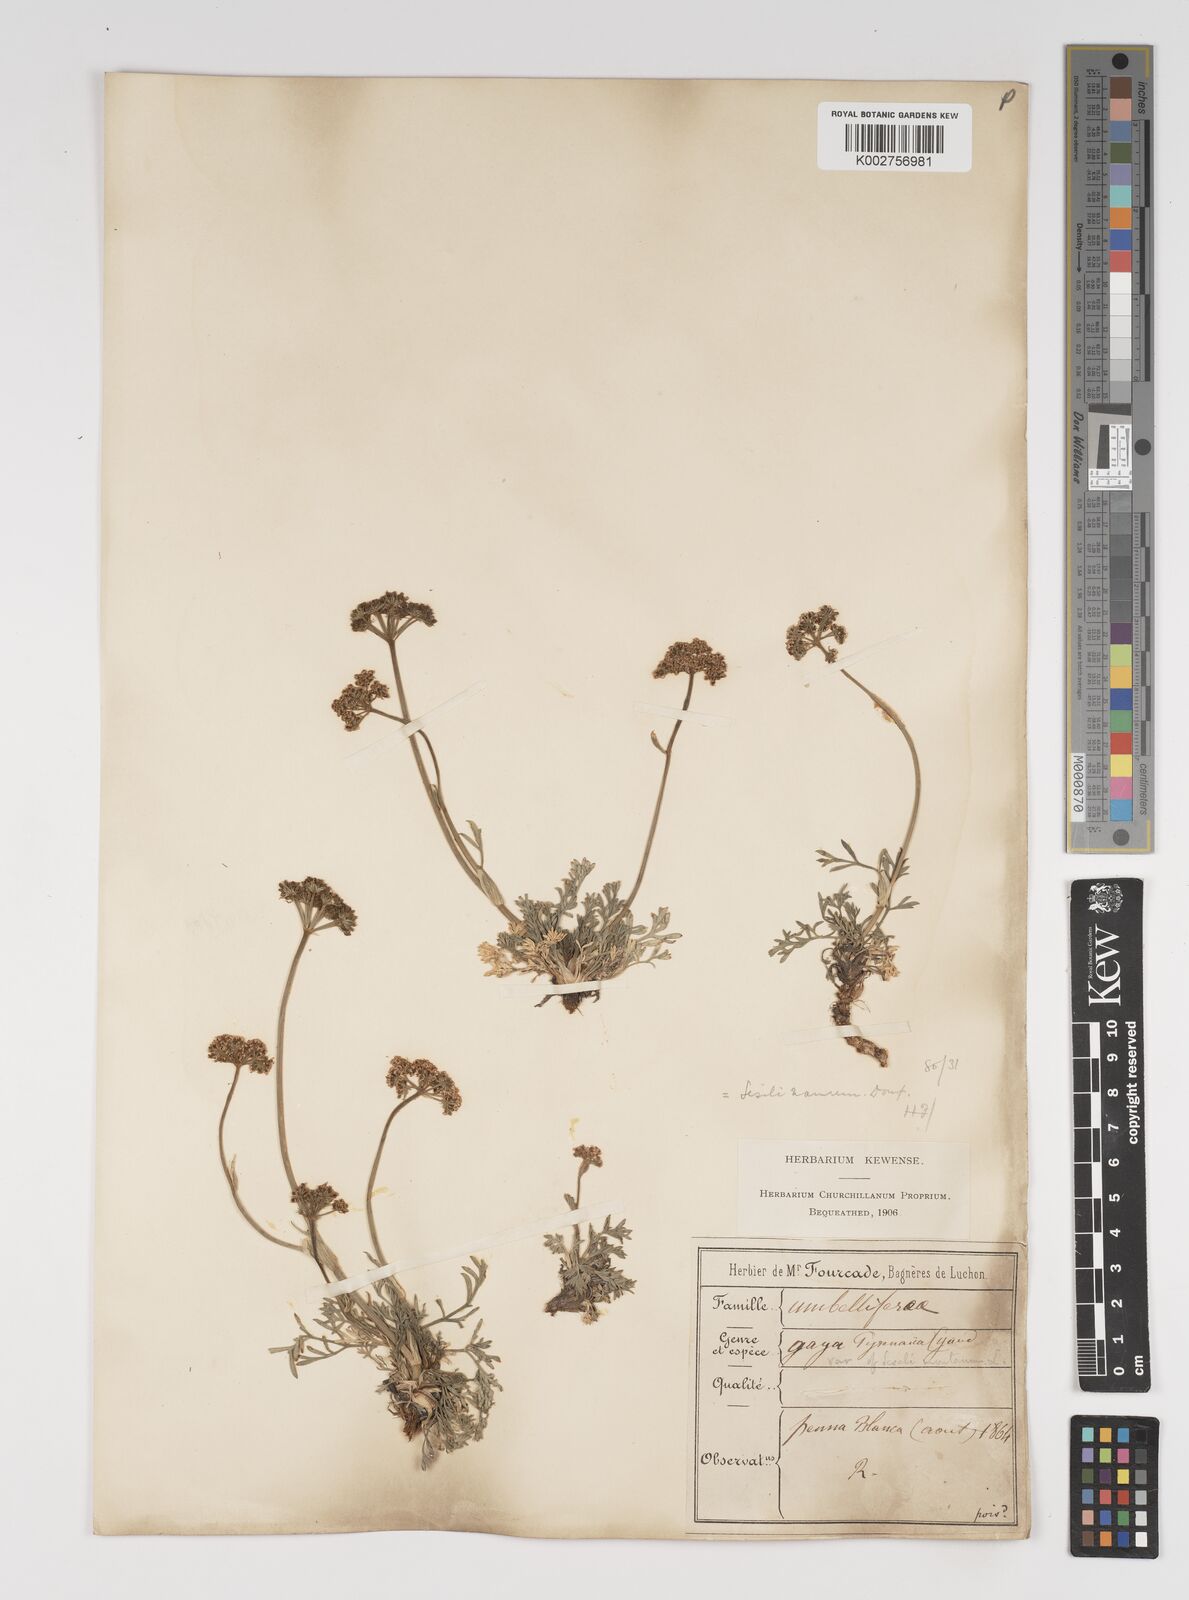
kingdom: Plantae
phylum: Tracheophyta
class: Magnoliopsida
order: Apiales
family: Apiaceae
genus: Seseli
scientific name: Seseli libanotis
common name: Mooncarrot
